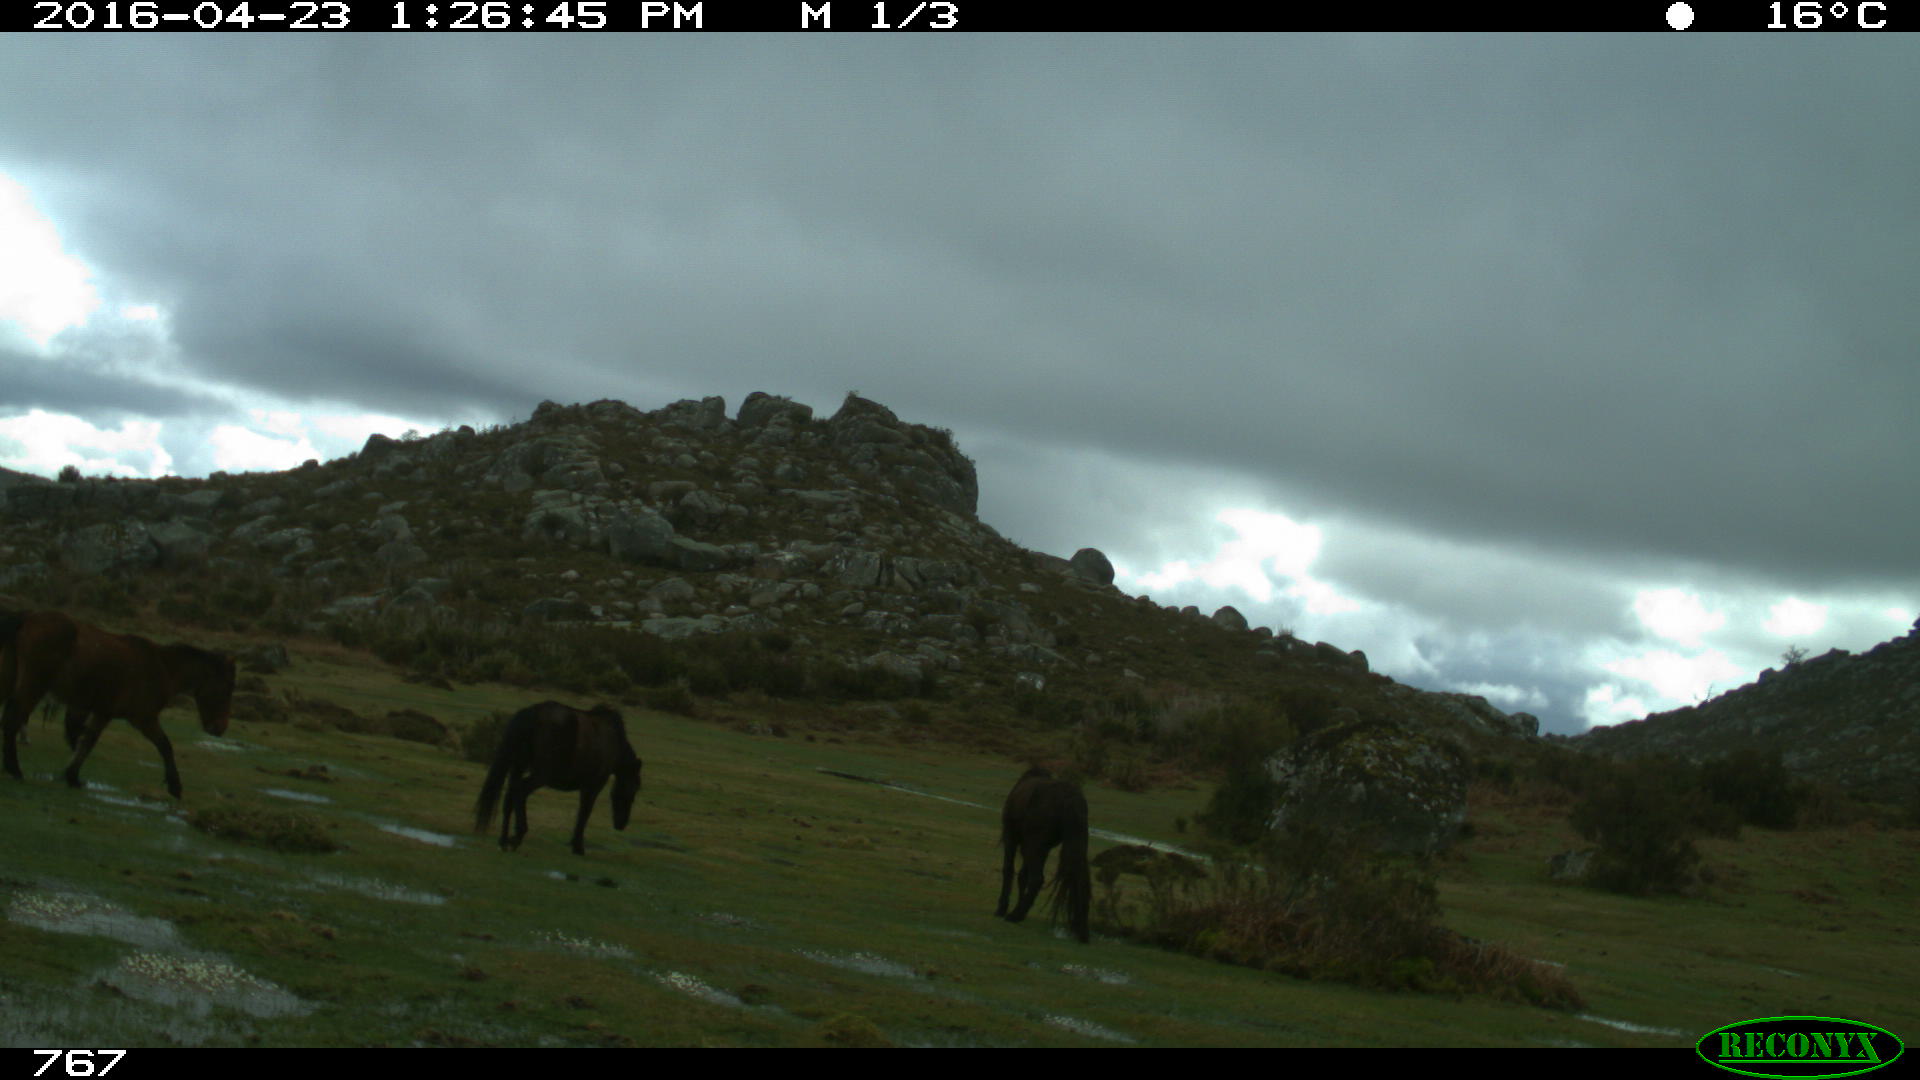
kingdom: Animalia
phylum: Chordata
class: Mammalia
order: Perissodactyla
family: Equidae
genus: Equus
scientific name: Equus caballus
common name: Horse
